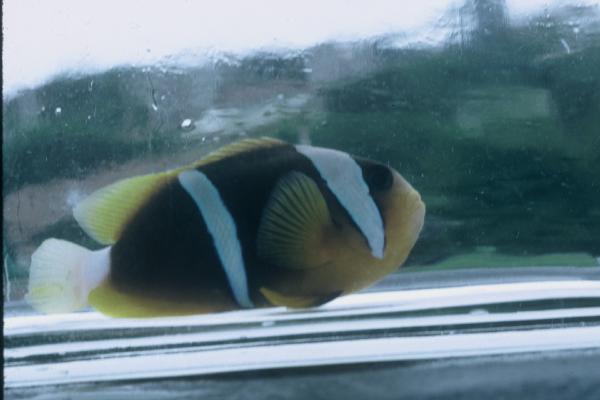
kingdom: Animalia
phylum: Chordata
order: Perciformes
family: Pomacentridae
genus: Amphiprion
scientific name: Amphiprion allardi
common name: Allard's anemonefish
